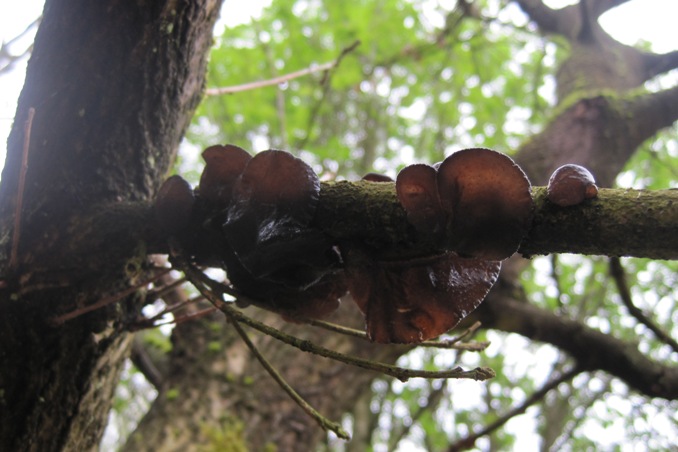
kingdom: Fungi
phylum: Basidiomycota
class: Agaricomycetes
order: Auriculariales
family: Auriculariaceae
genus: Exidia
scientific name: Exidia glandulosa
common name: ege-bævretop
